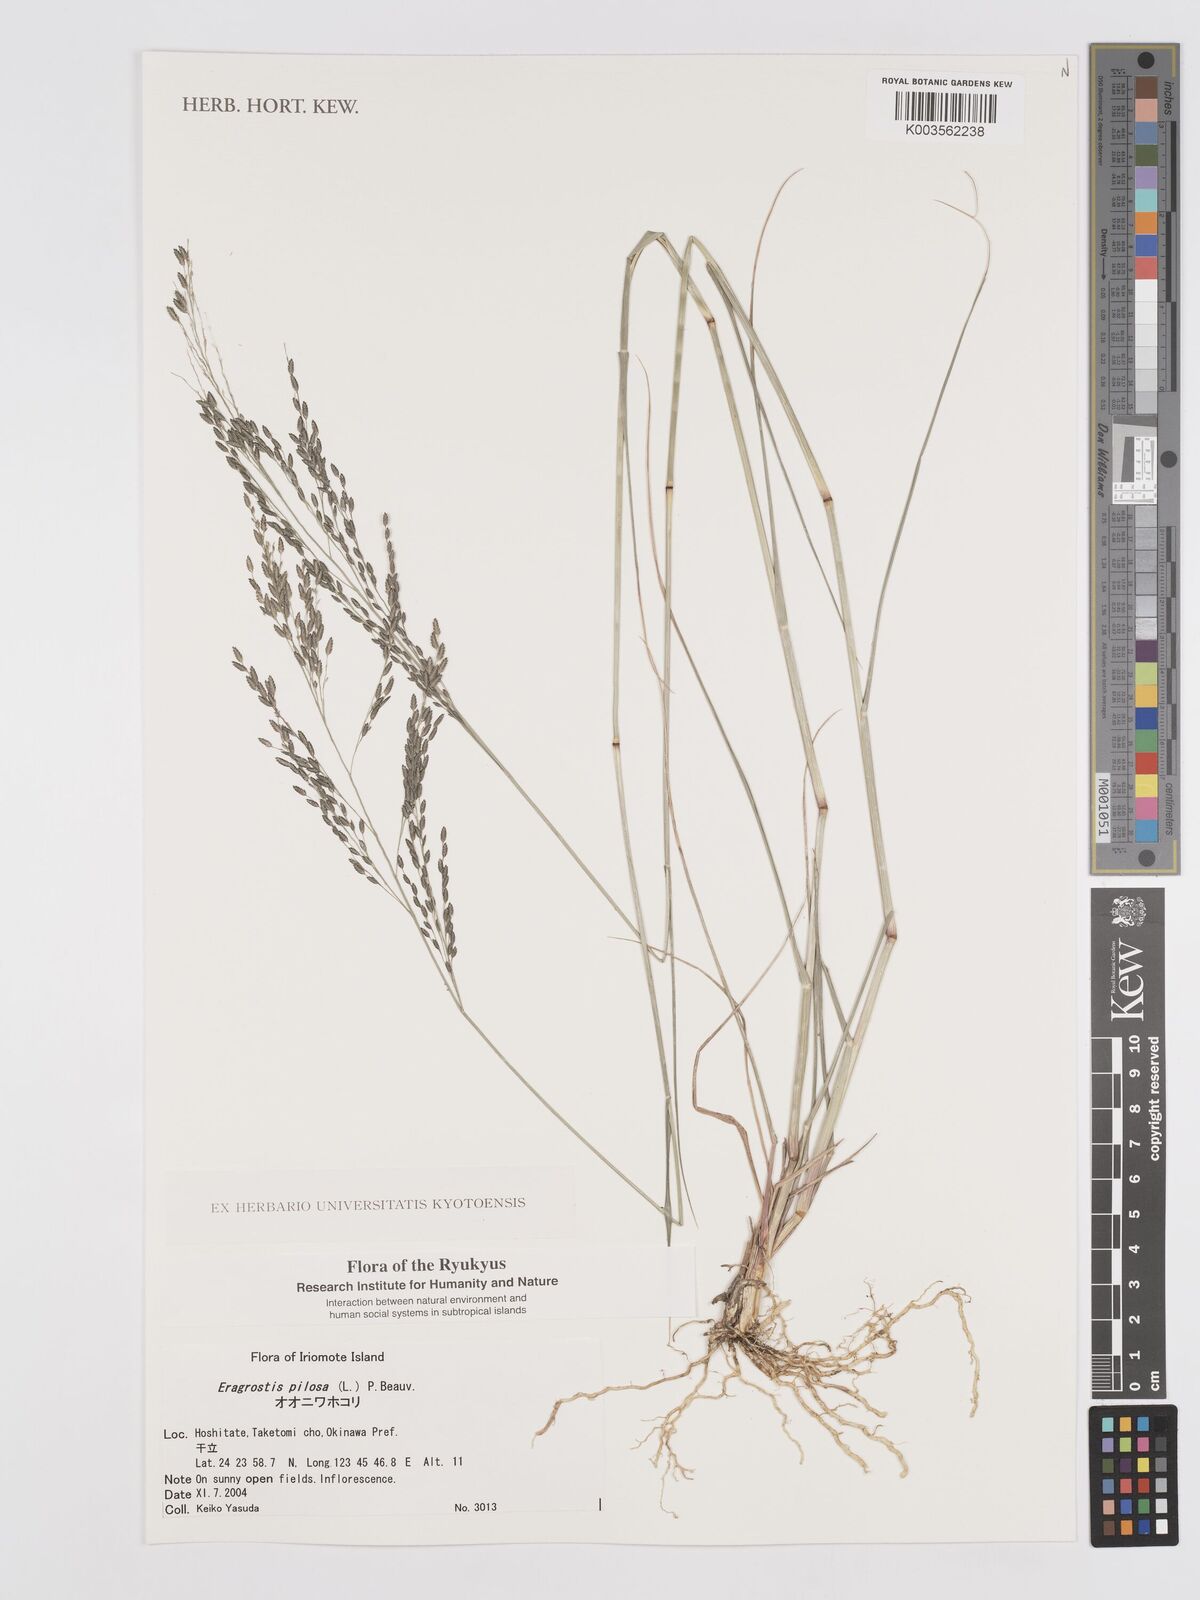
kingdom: Plantae
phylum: Tracheophyta
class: Liliopsida
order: Poales
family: Poaceae
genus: Eragrostis
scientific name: Eragrostis pilosa
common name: Indian lovegrass
